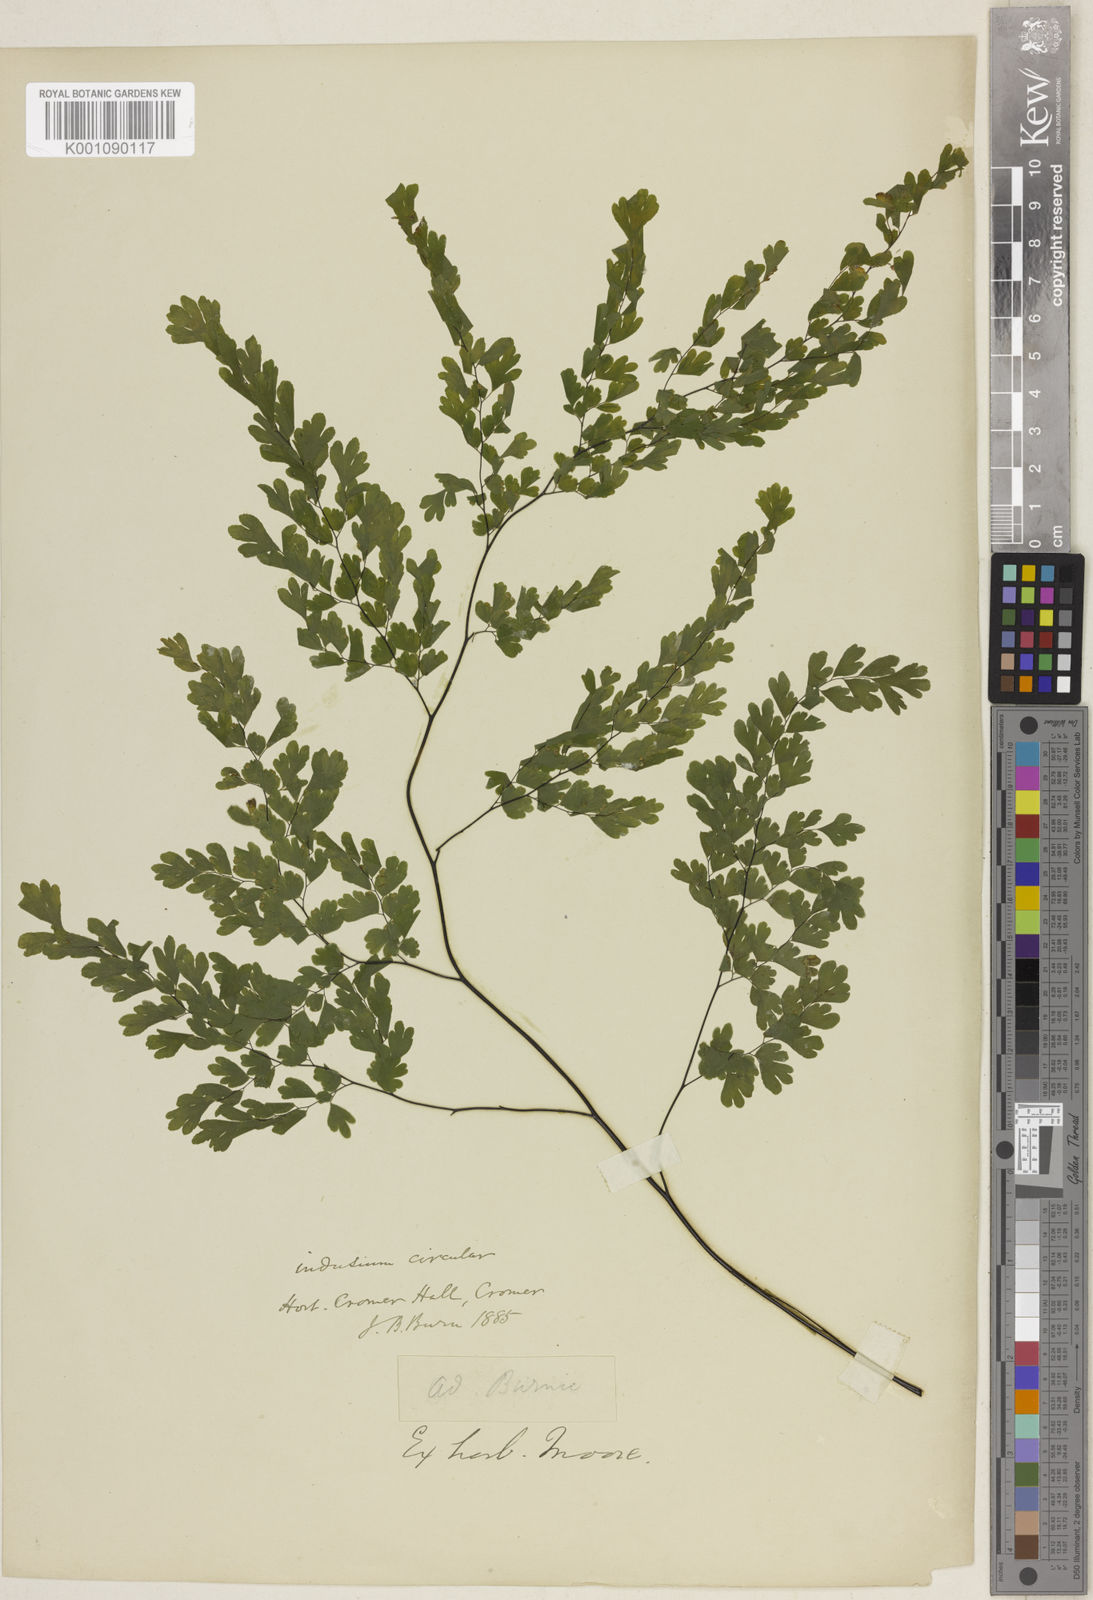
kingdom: Plantae
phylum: Tracheophyta
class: Polypodiopsida
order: Polypodiales
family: Pteridaceae
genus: Adiantum
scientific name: Adiantum raddianum
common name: Delta maidenhair fern
